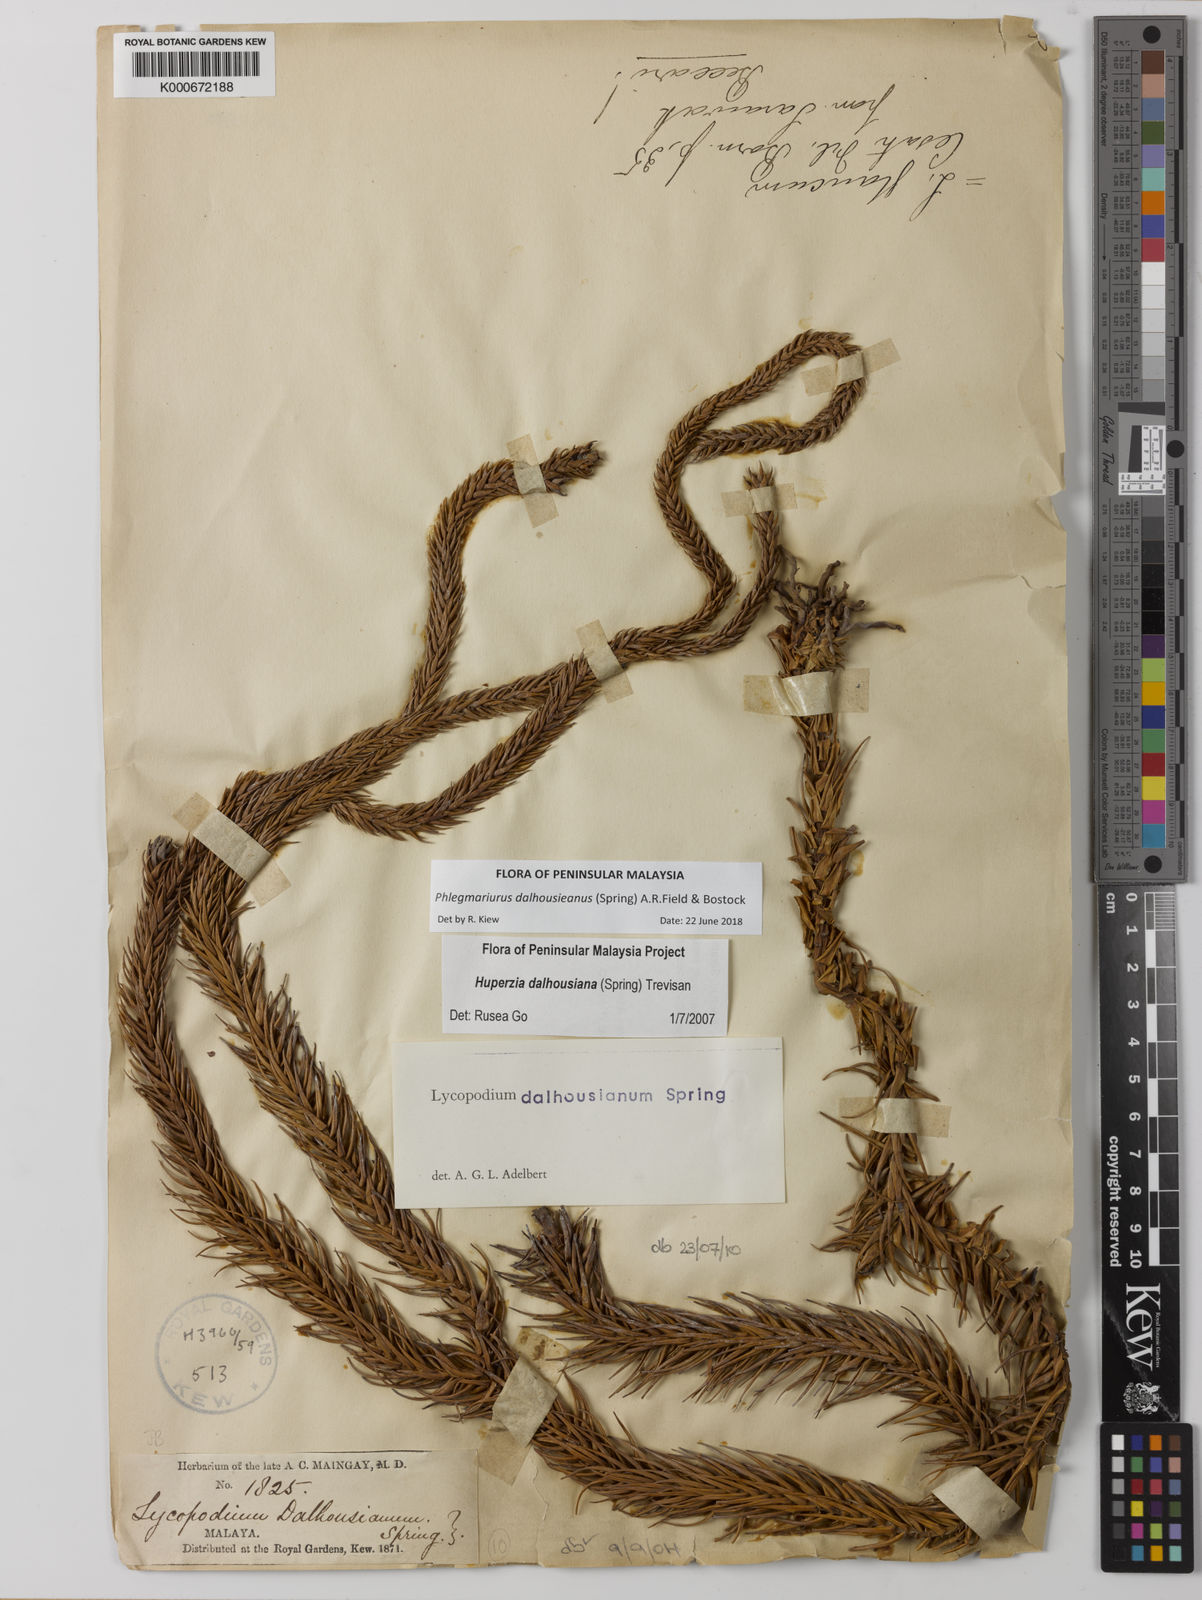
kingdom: Plantae
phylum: Tracheophyta
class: Lycopodiopsida
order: Lycopodiales
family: Lycopodiaceae
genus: Phlegmariurus
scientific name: Phlegmariurus dalhousieanus
